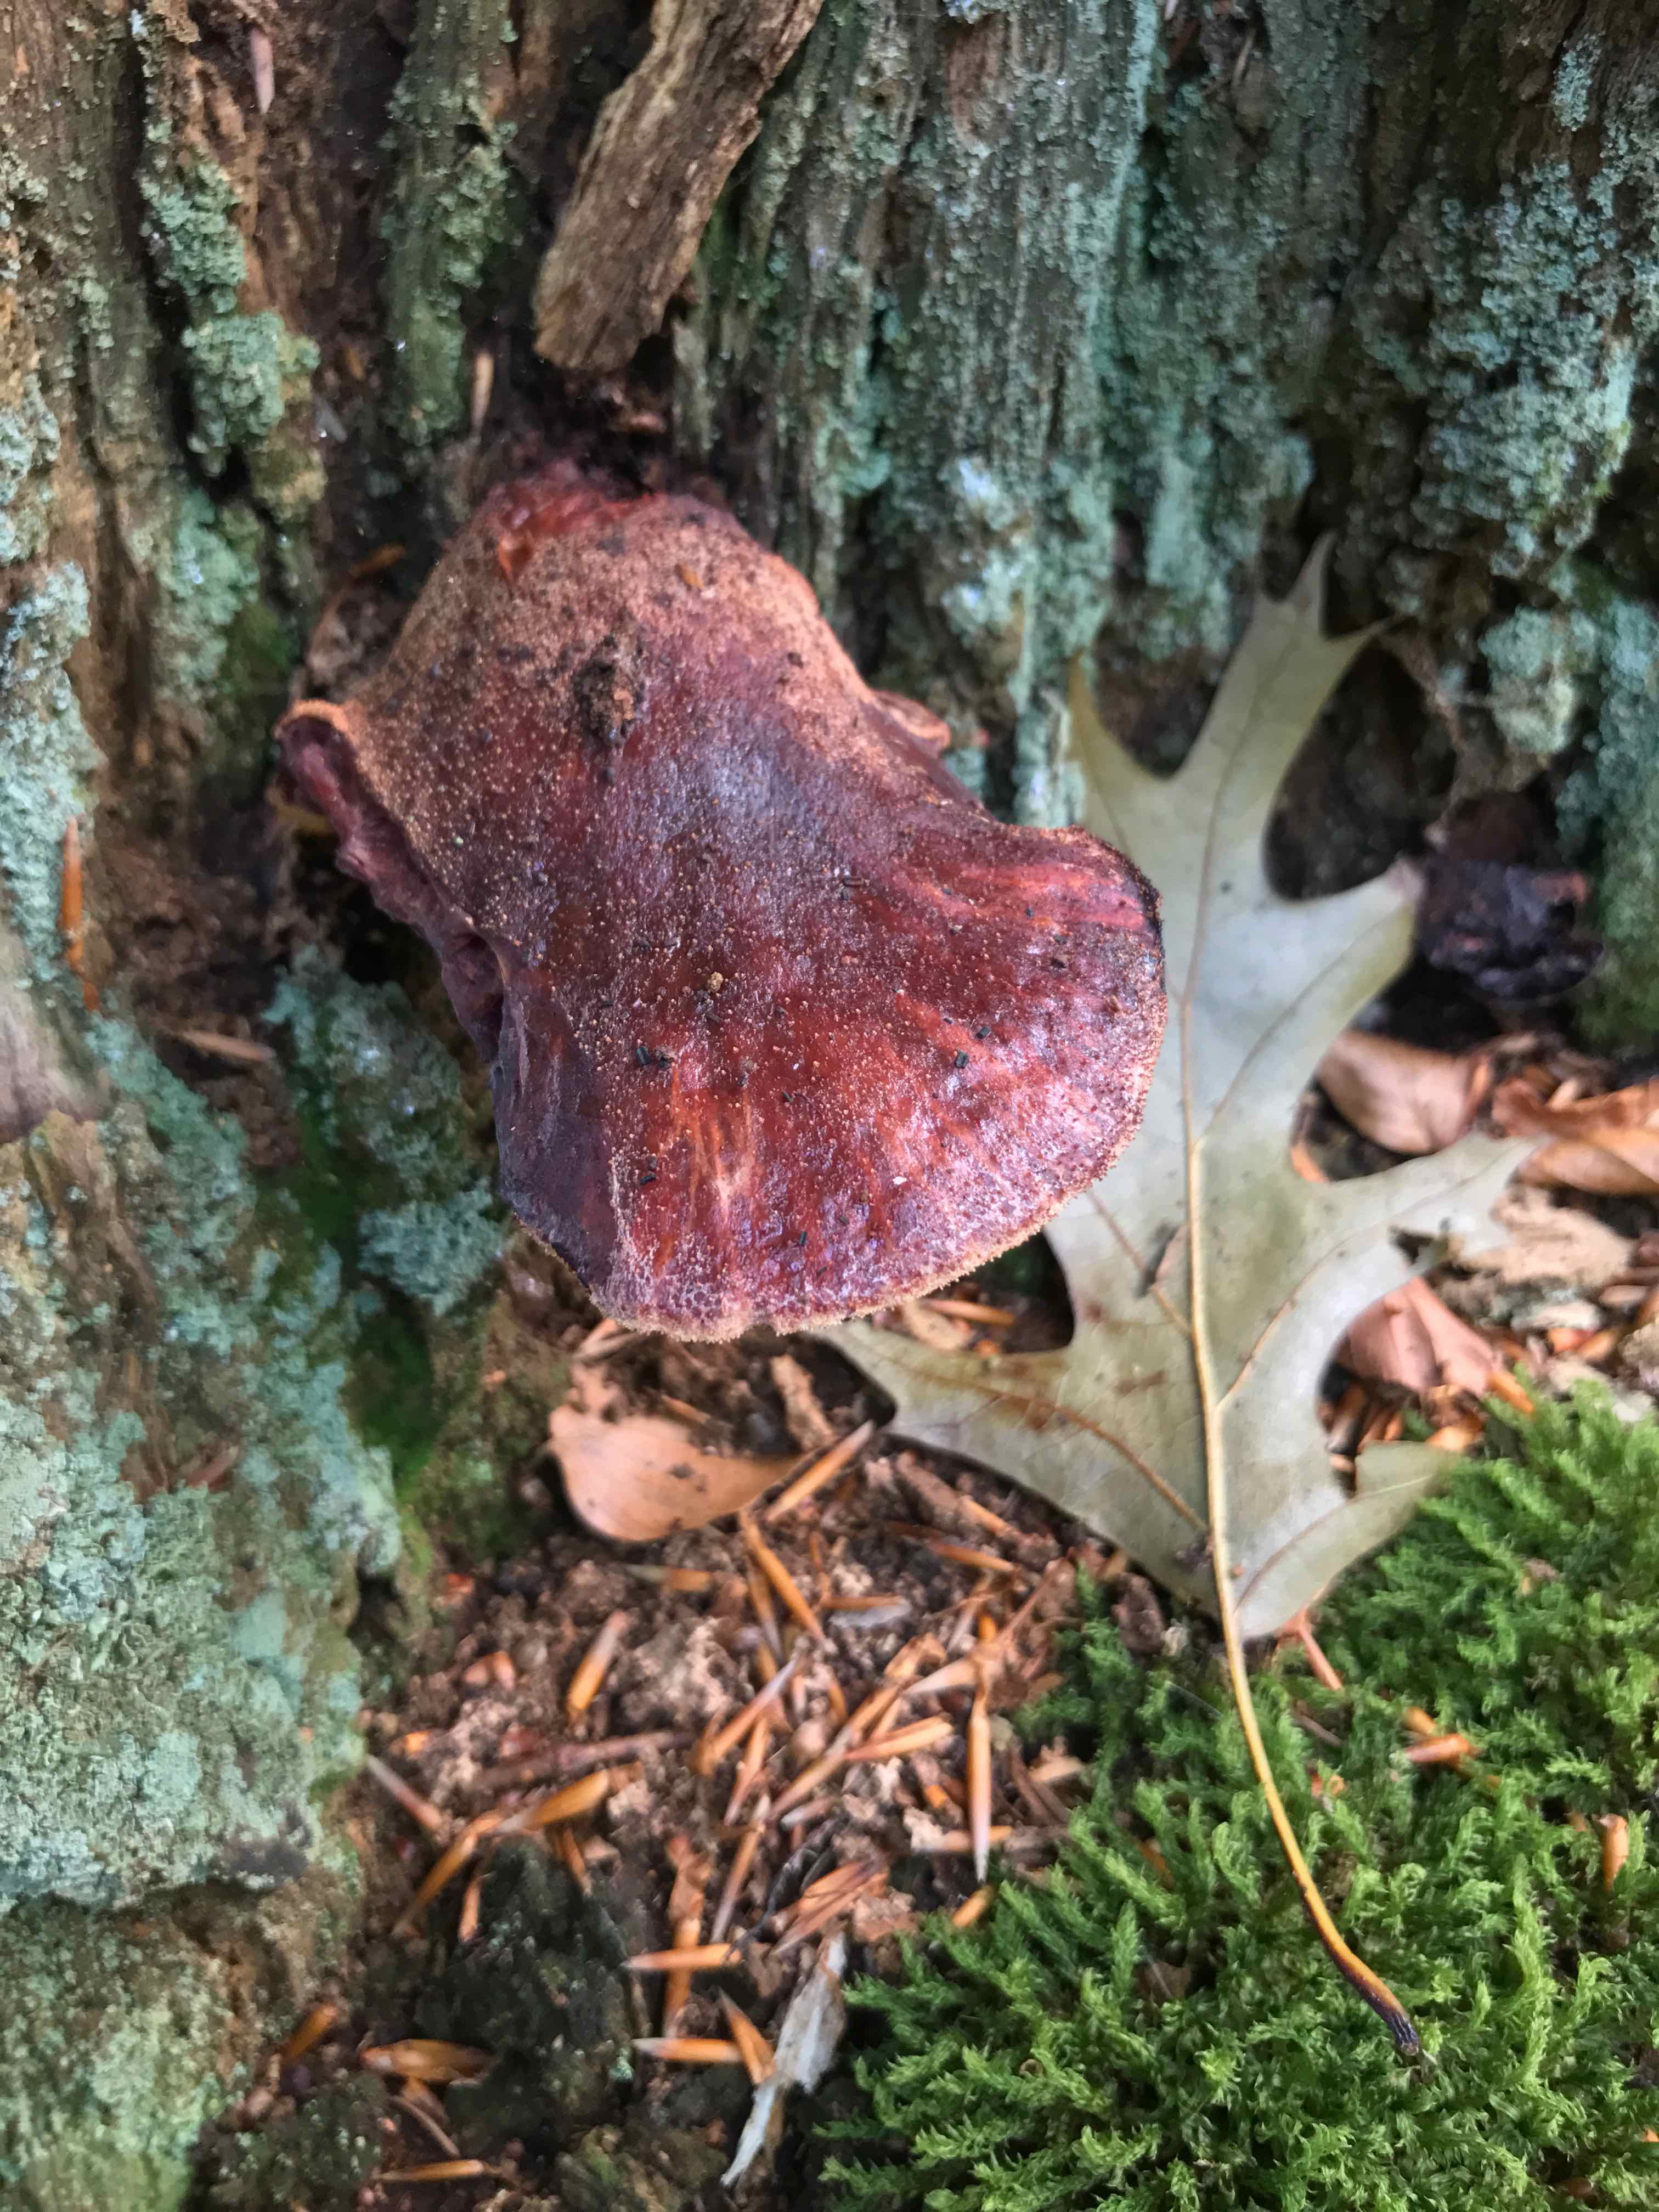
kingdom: Fungi
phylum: Basidiomycota
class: Agaricomycetes
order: Agaricales
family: Fistulinaceae
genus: Fistulina
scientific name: Fistulina hepatica
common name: oksetunge
